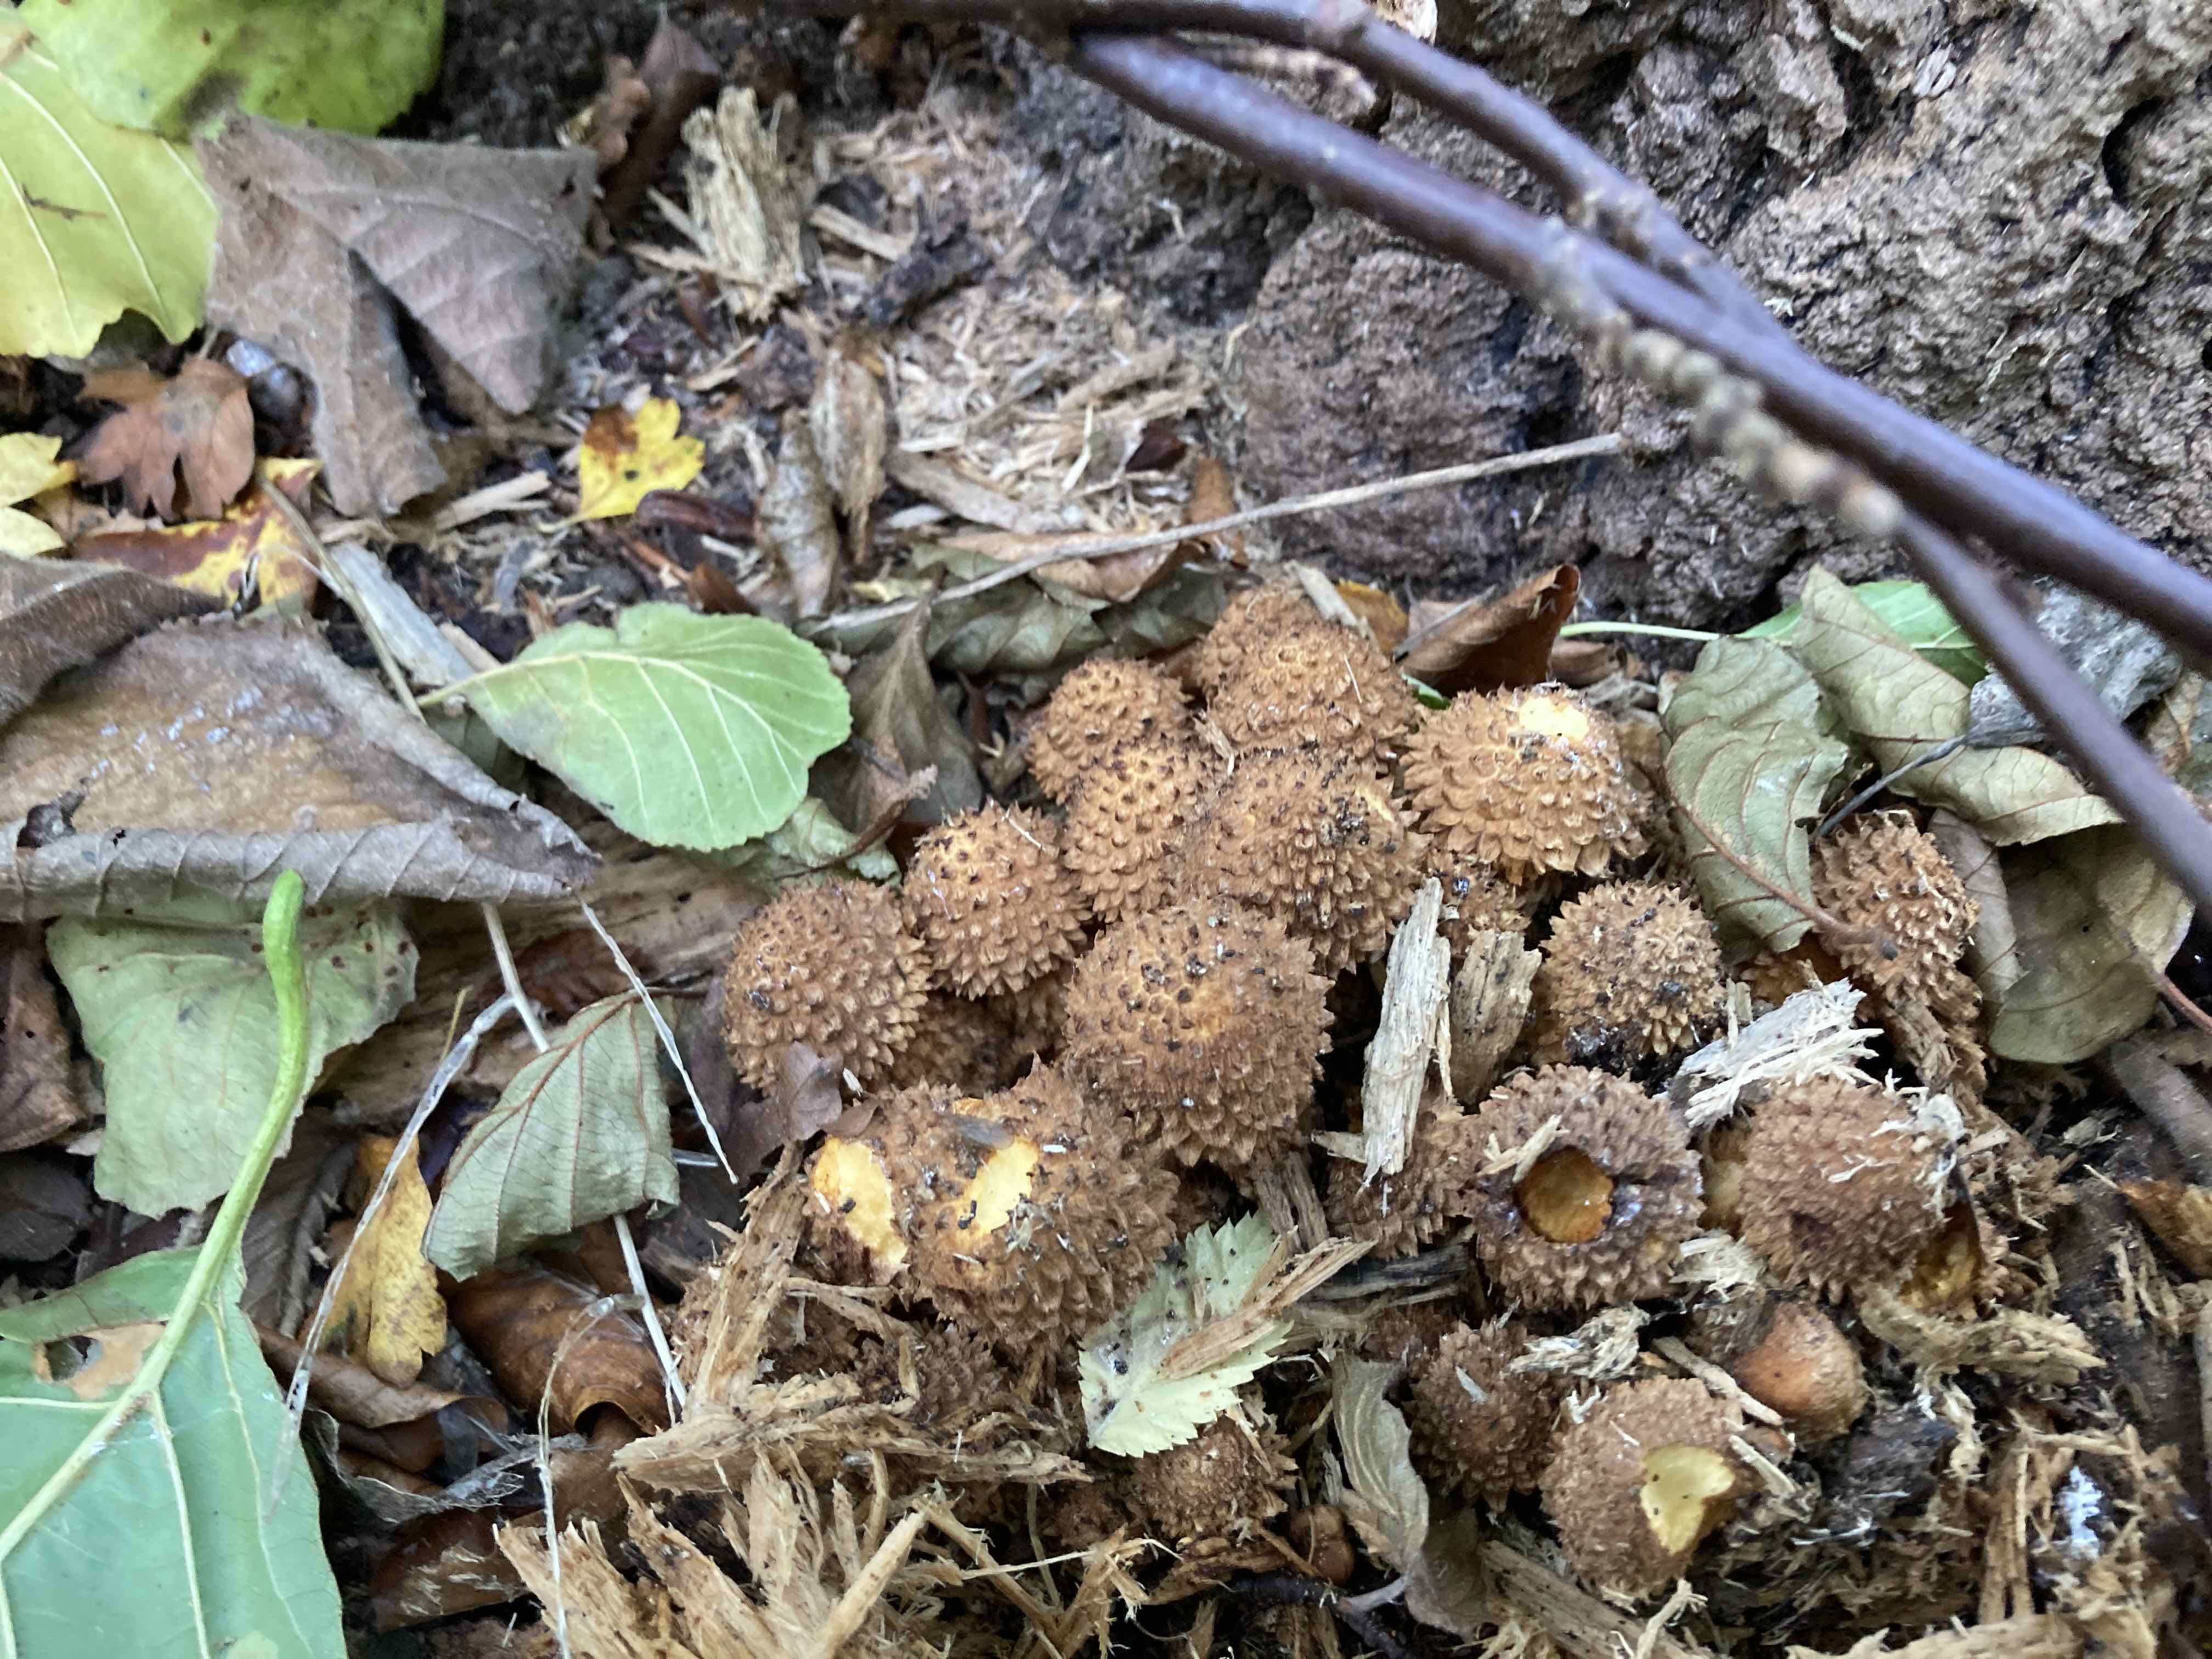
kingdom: Fungi
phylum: Basidiomycota
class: Agaricomycetes
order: Agaricales
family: Strophariaceae
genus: Pholiota
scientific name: Pholiota squarrosa
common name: krumskællet skælhat
